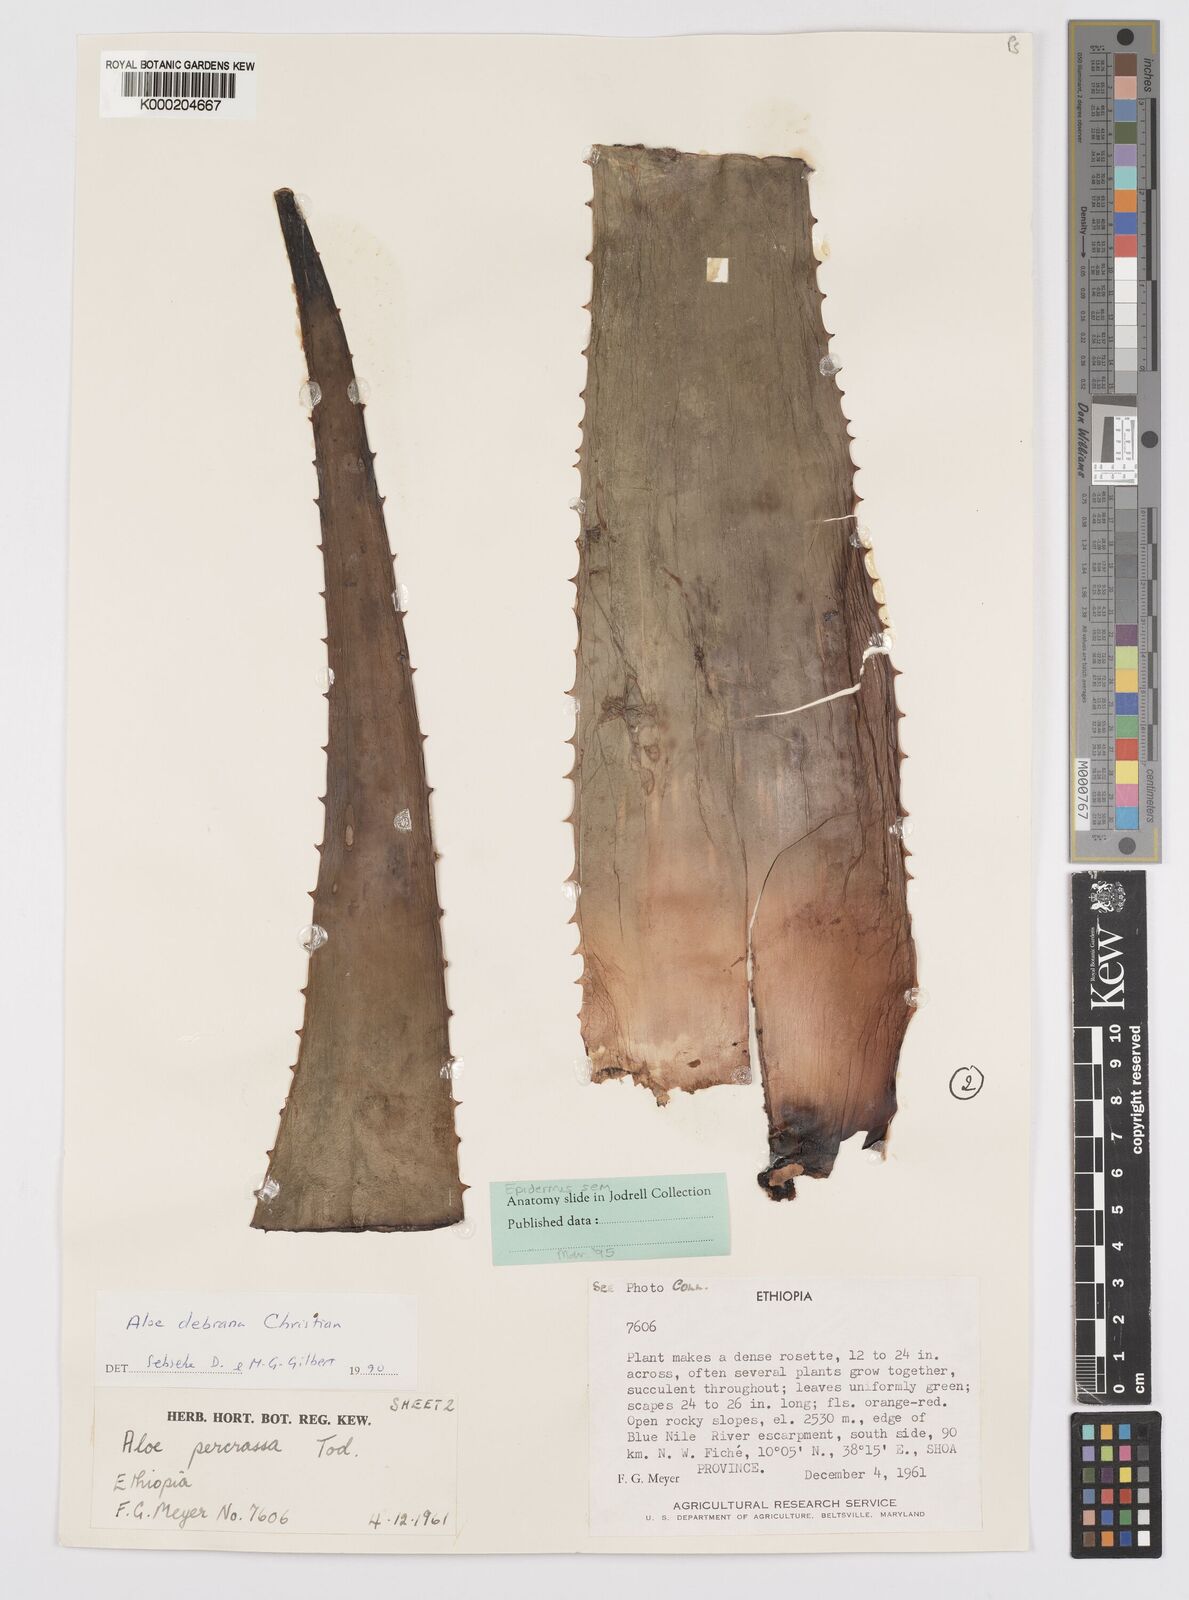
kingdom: Plantae
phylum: Tracheophyta
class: Liliopsida
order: Asparagales
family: Asphodelaceae
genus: Aloe
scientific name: Aloe debrana
